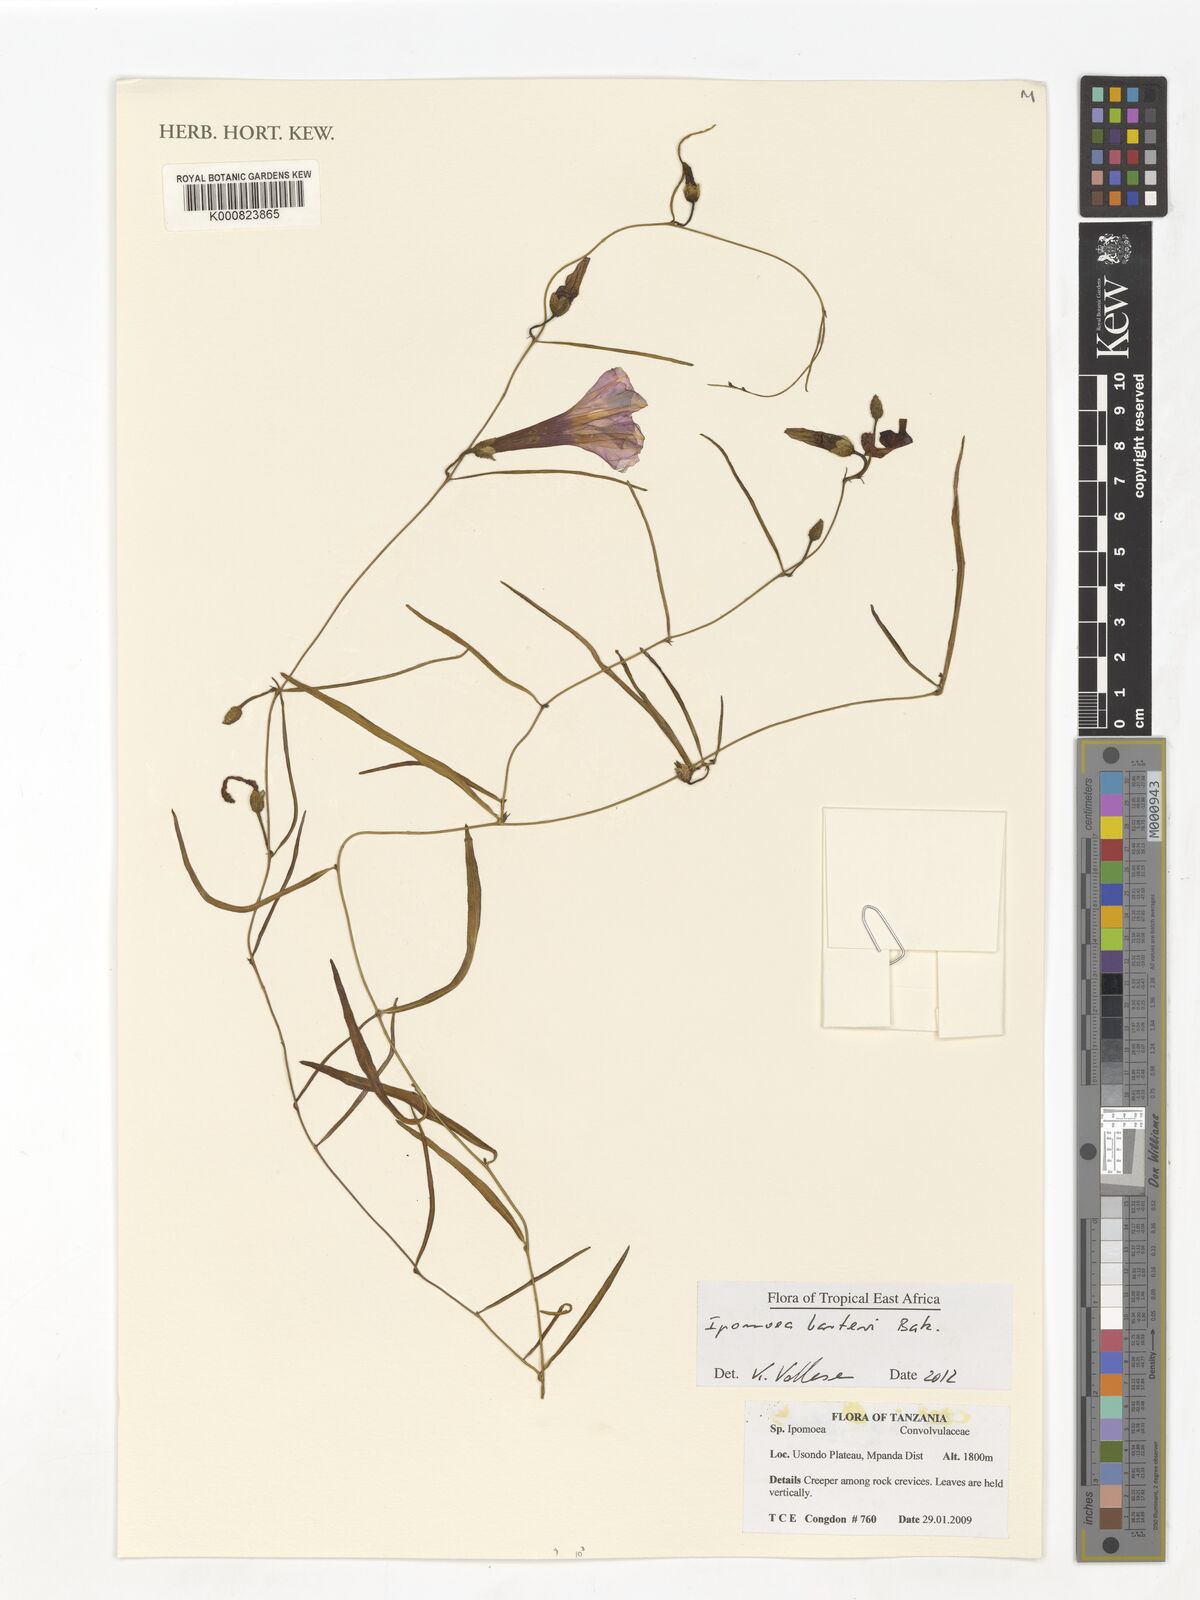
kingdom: Plantae
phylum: Tracheophyta
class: Magnoliopsida
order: Solanales
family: Convolvulaceae
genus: Ipomoea
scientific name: Ipomoea barteri
